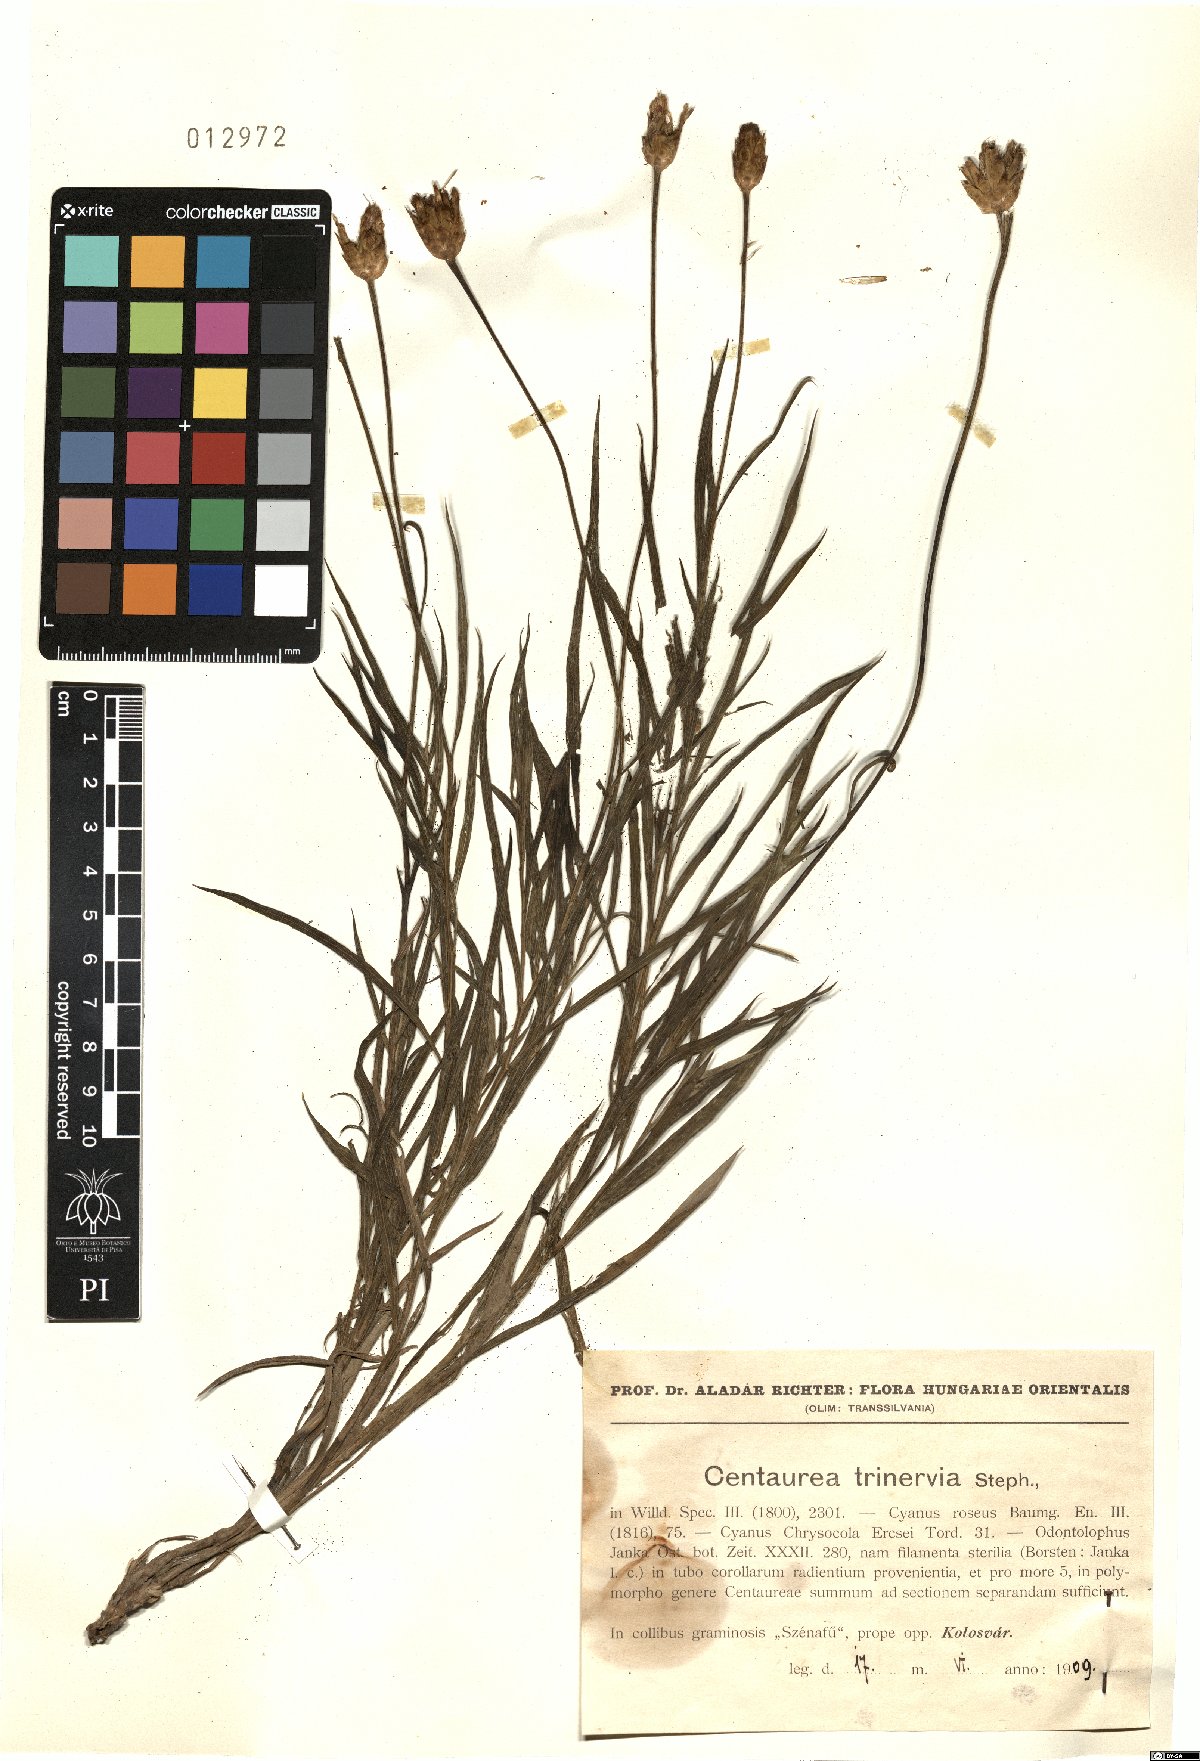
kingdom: Plantae
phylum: Tracheophyta
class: Magnoliopsida
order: Asterales
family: Asteraceae
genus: Psephellus
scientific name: Psephellus trinervius
